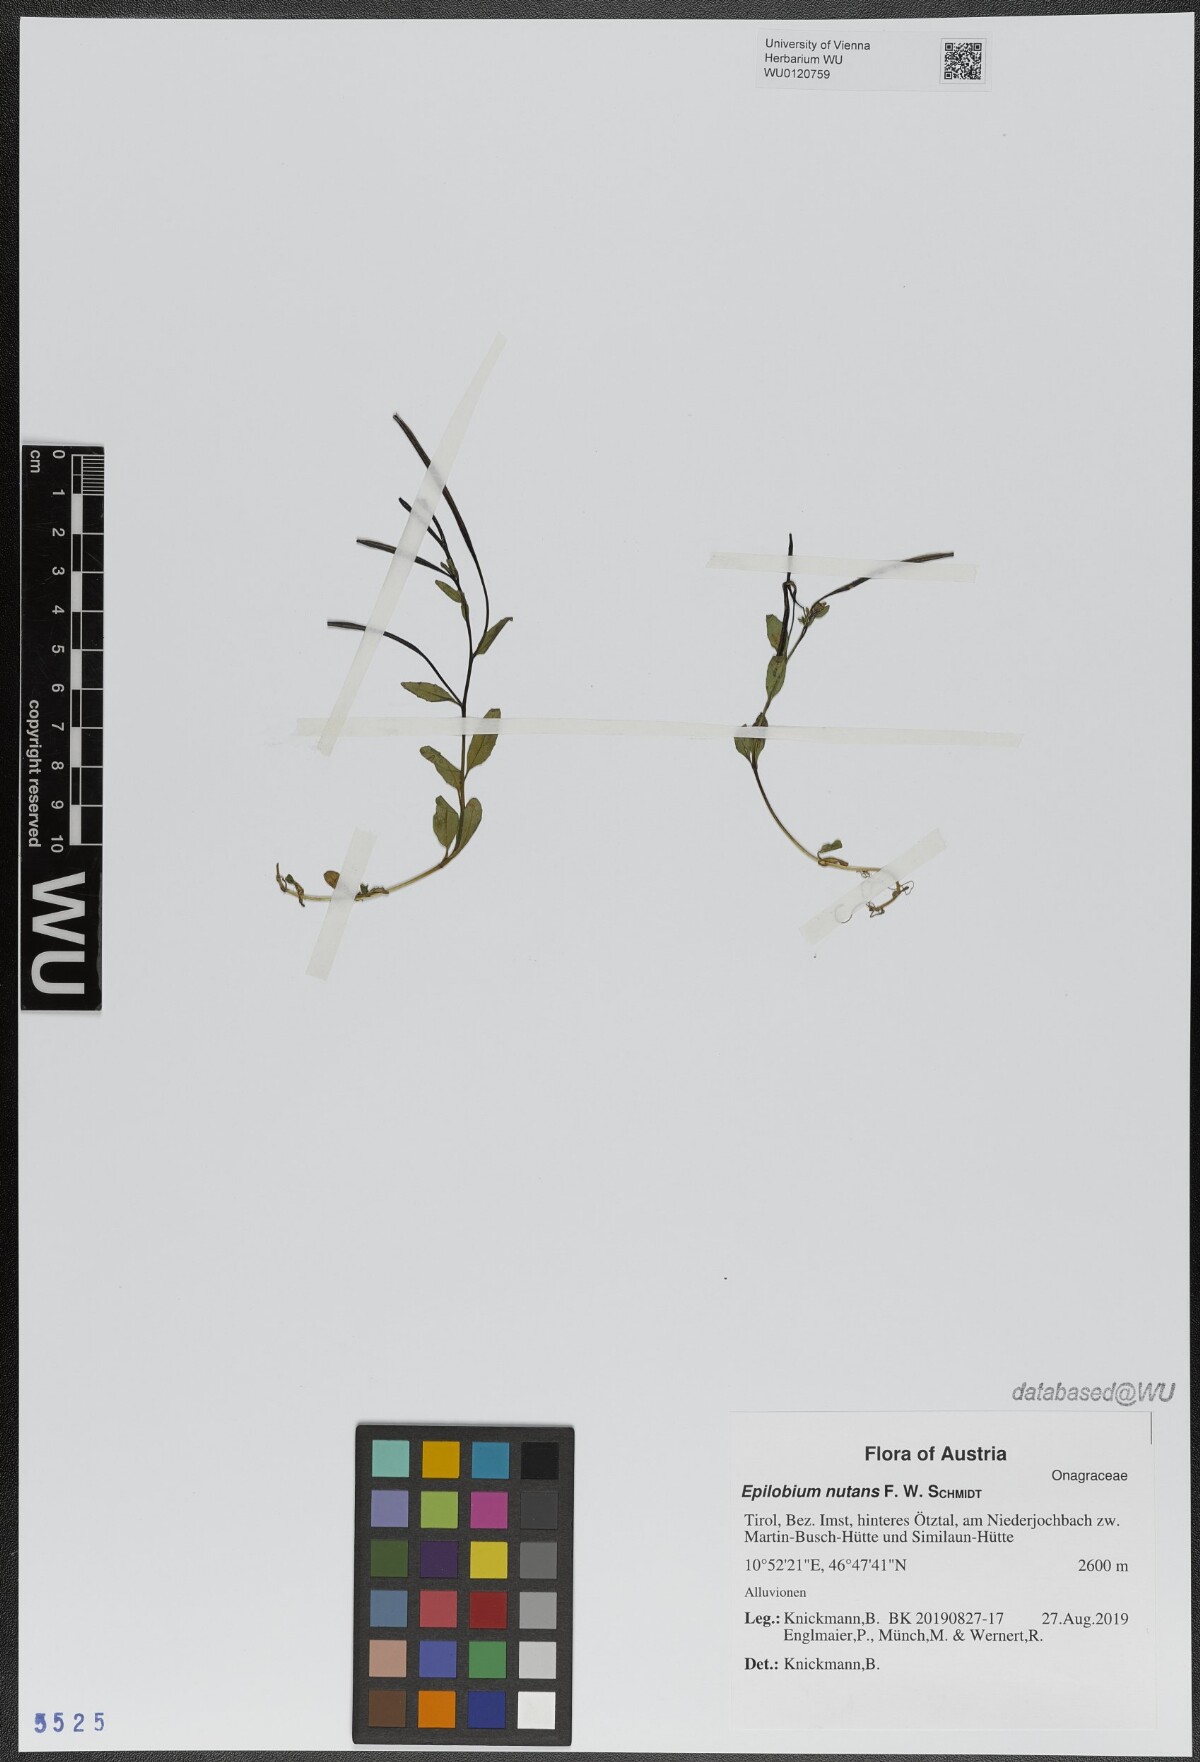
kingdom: Plantae
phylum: Tracheophyta
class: Magnoliopsida
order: Myrtales
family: Onagraceae
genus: Epilobium
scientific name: Epilobium nutans
